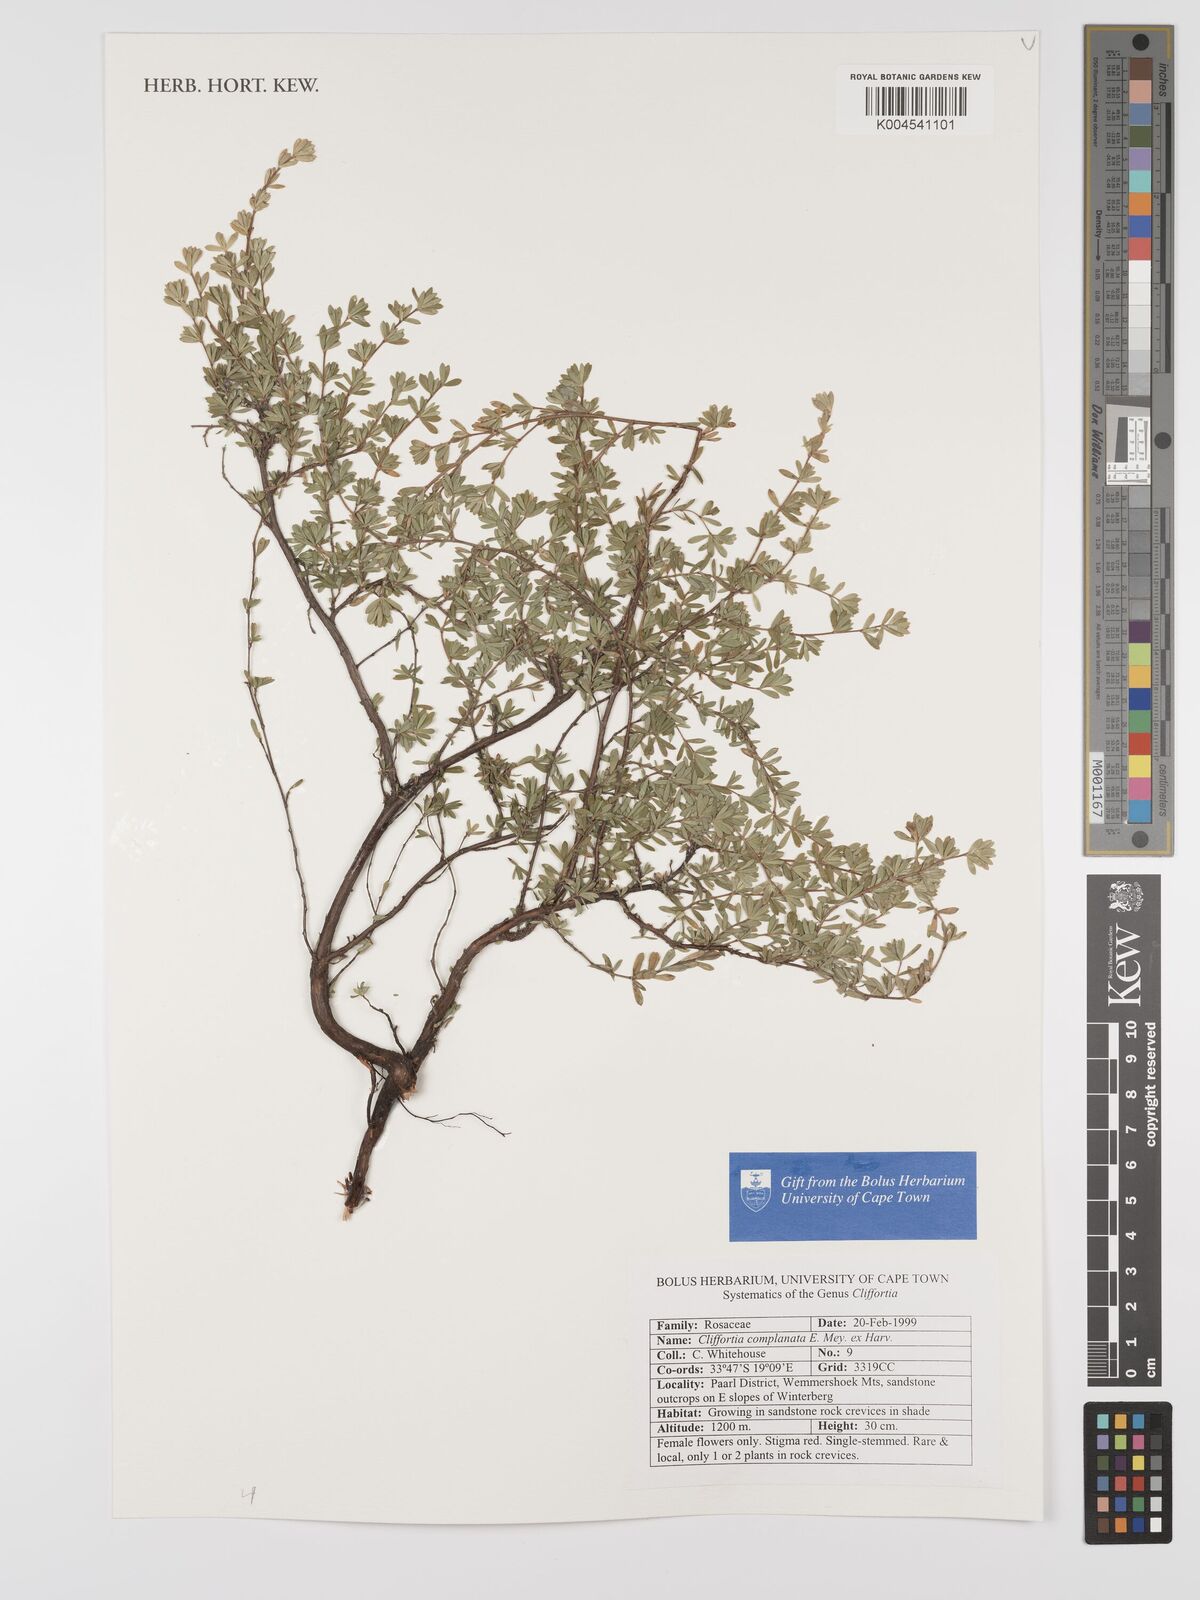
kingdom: Plantae
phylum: Tracheophyta
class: Magnoliopsida
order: Rosales
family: Rosaceae
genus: Cliffortia
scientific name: Cliffortia complanata
